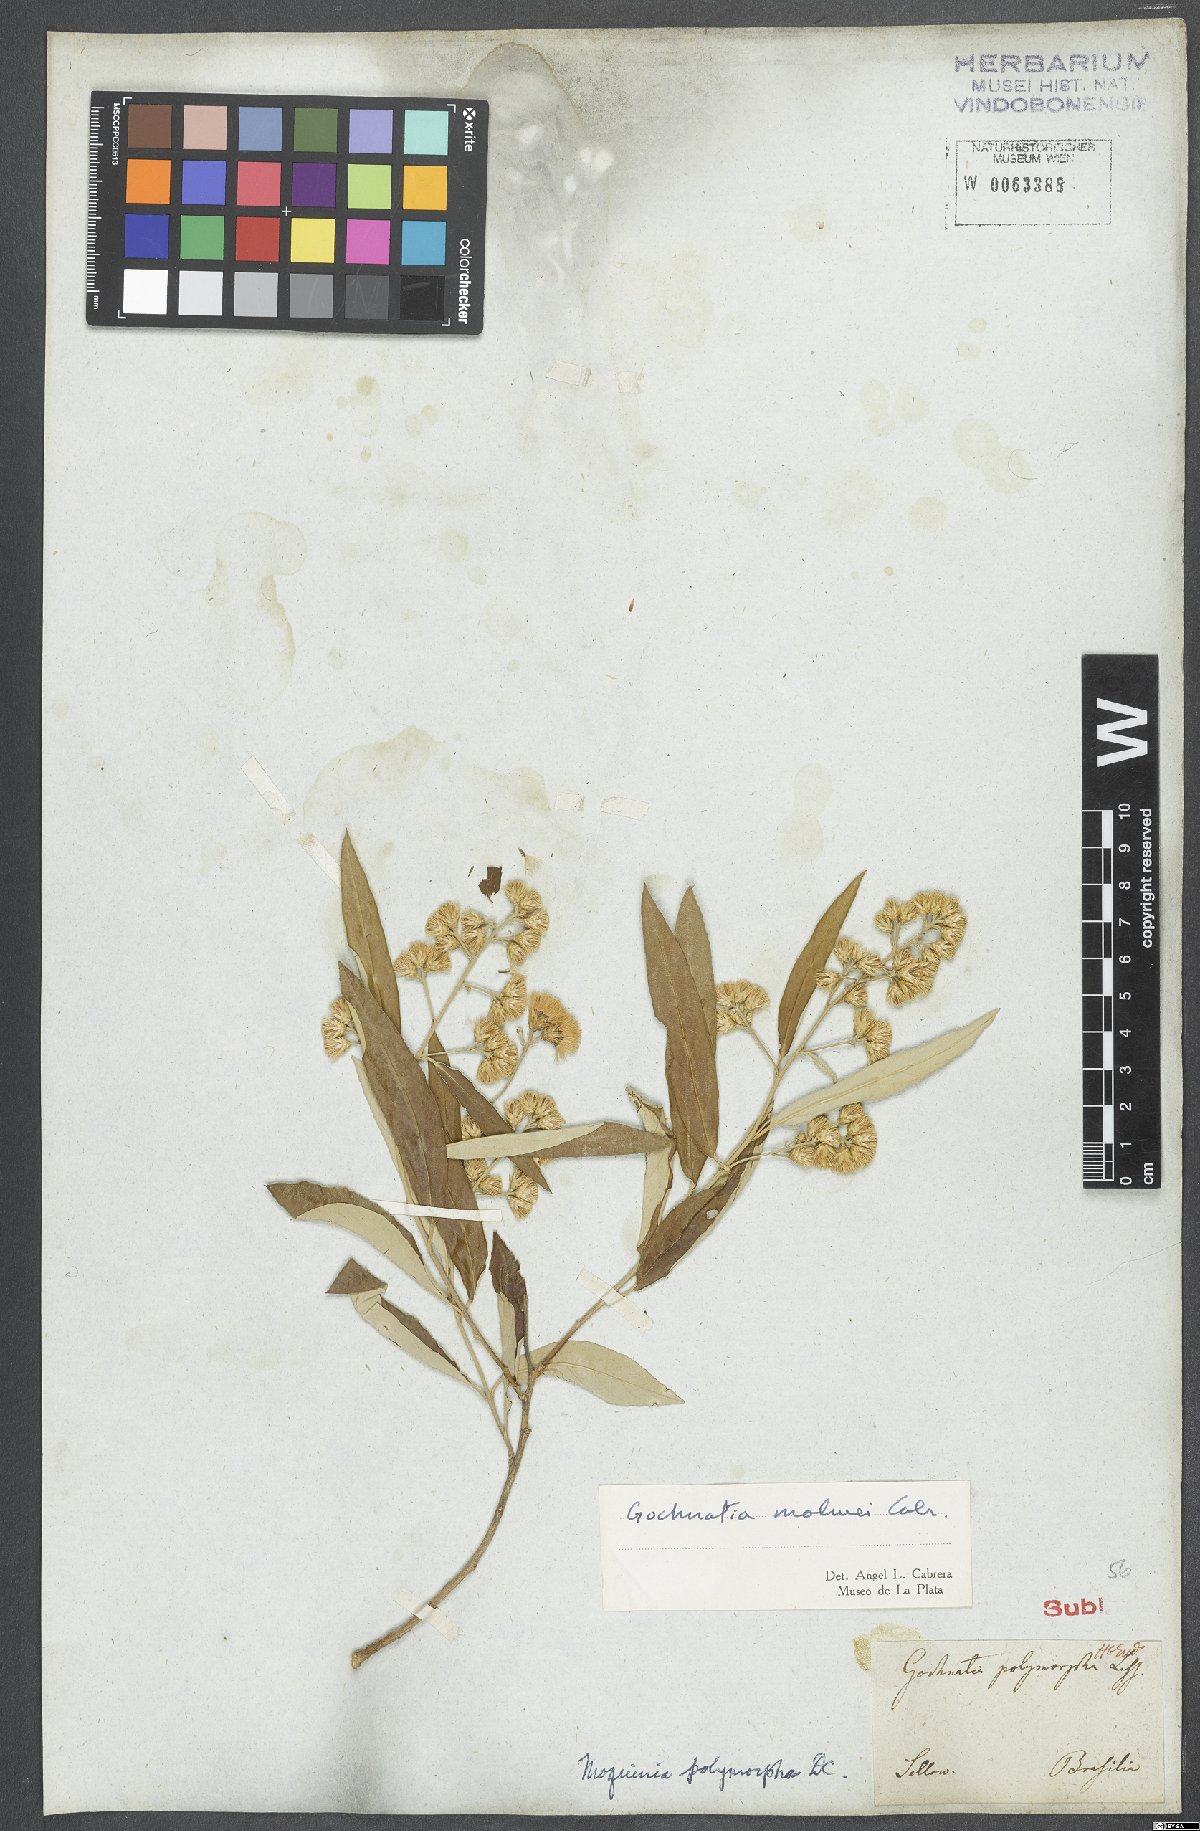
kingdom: Plantae
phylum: Tracheophyta
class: Magnoliopsida
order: Asterales
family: Asteraceae
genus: Moquiniastrum
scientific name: Moquiniastrum polymorphum
